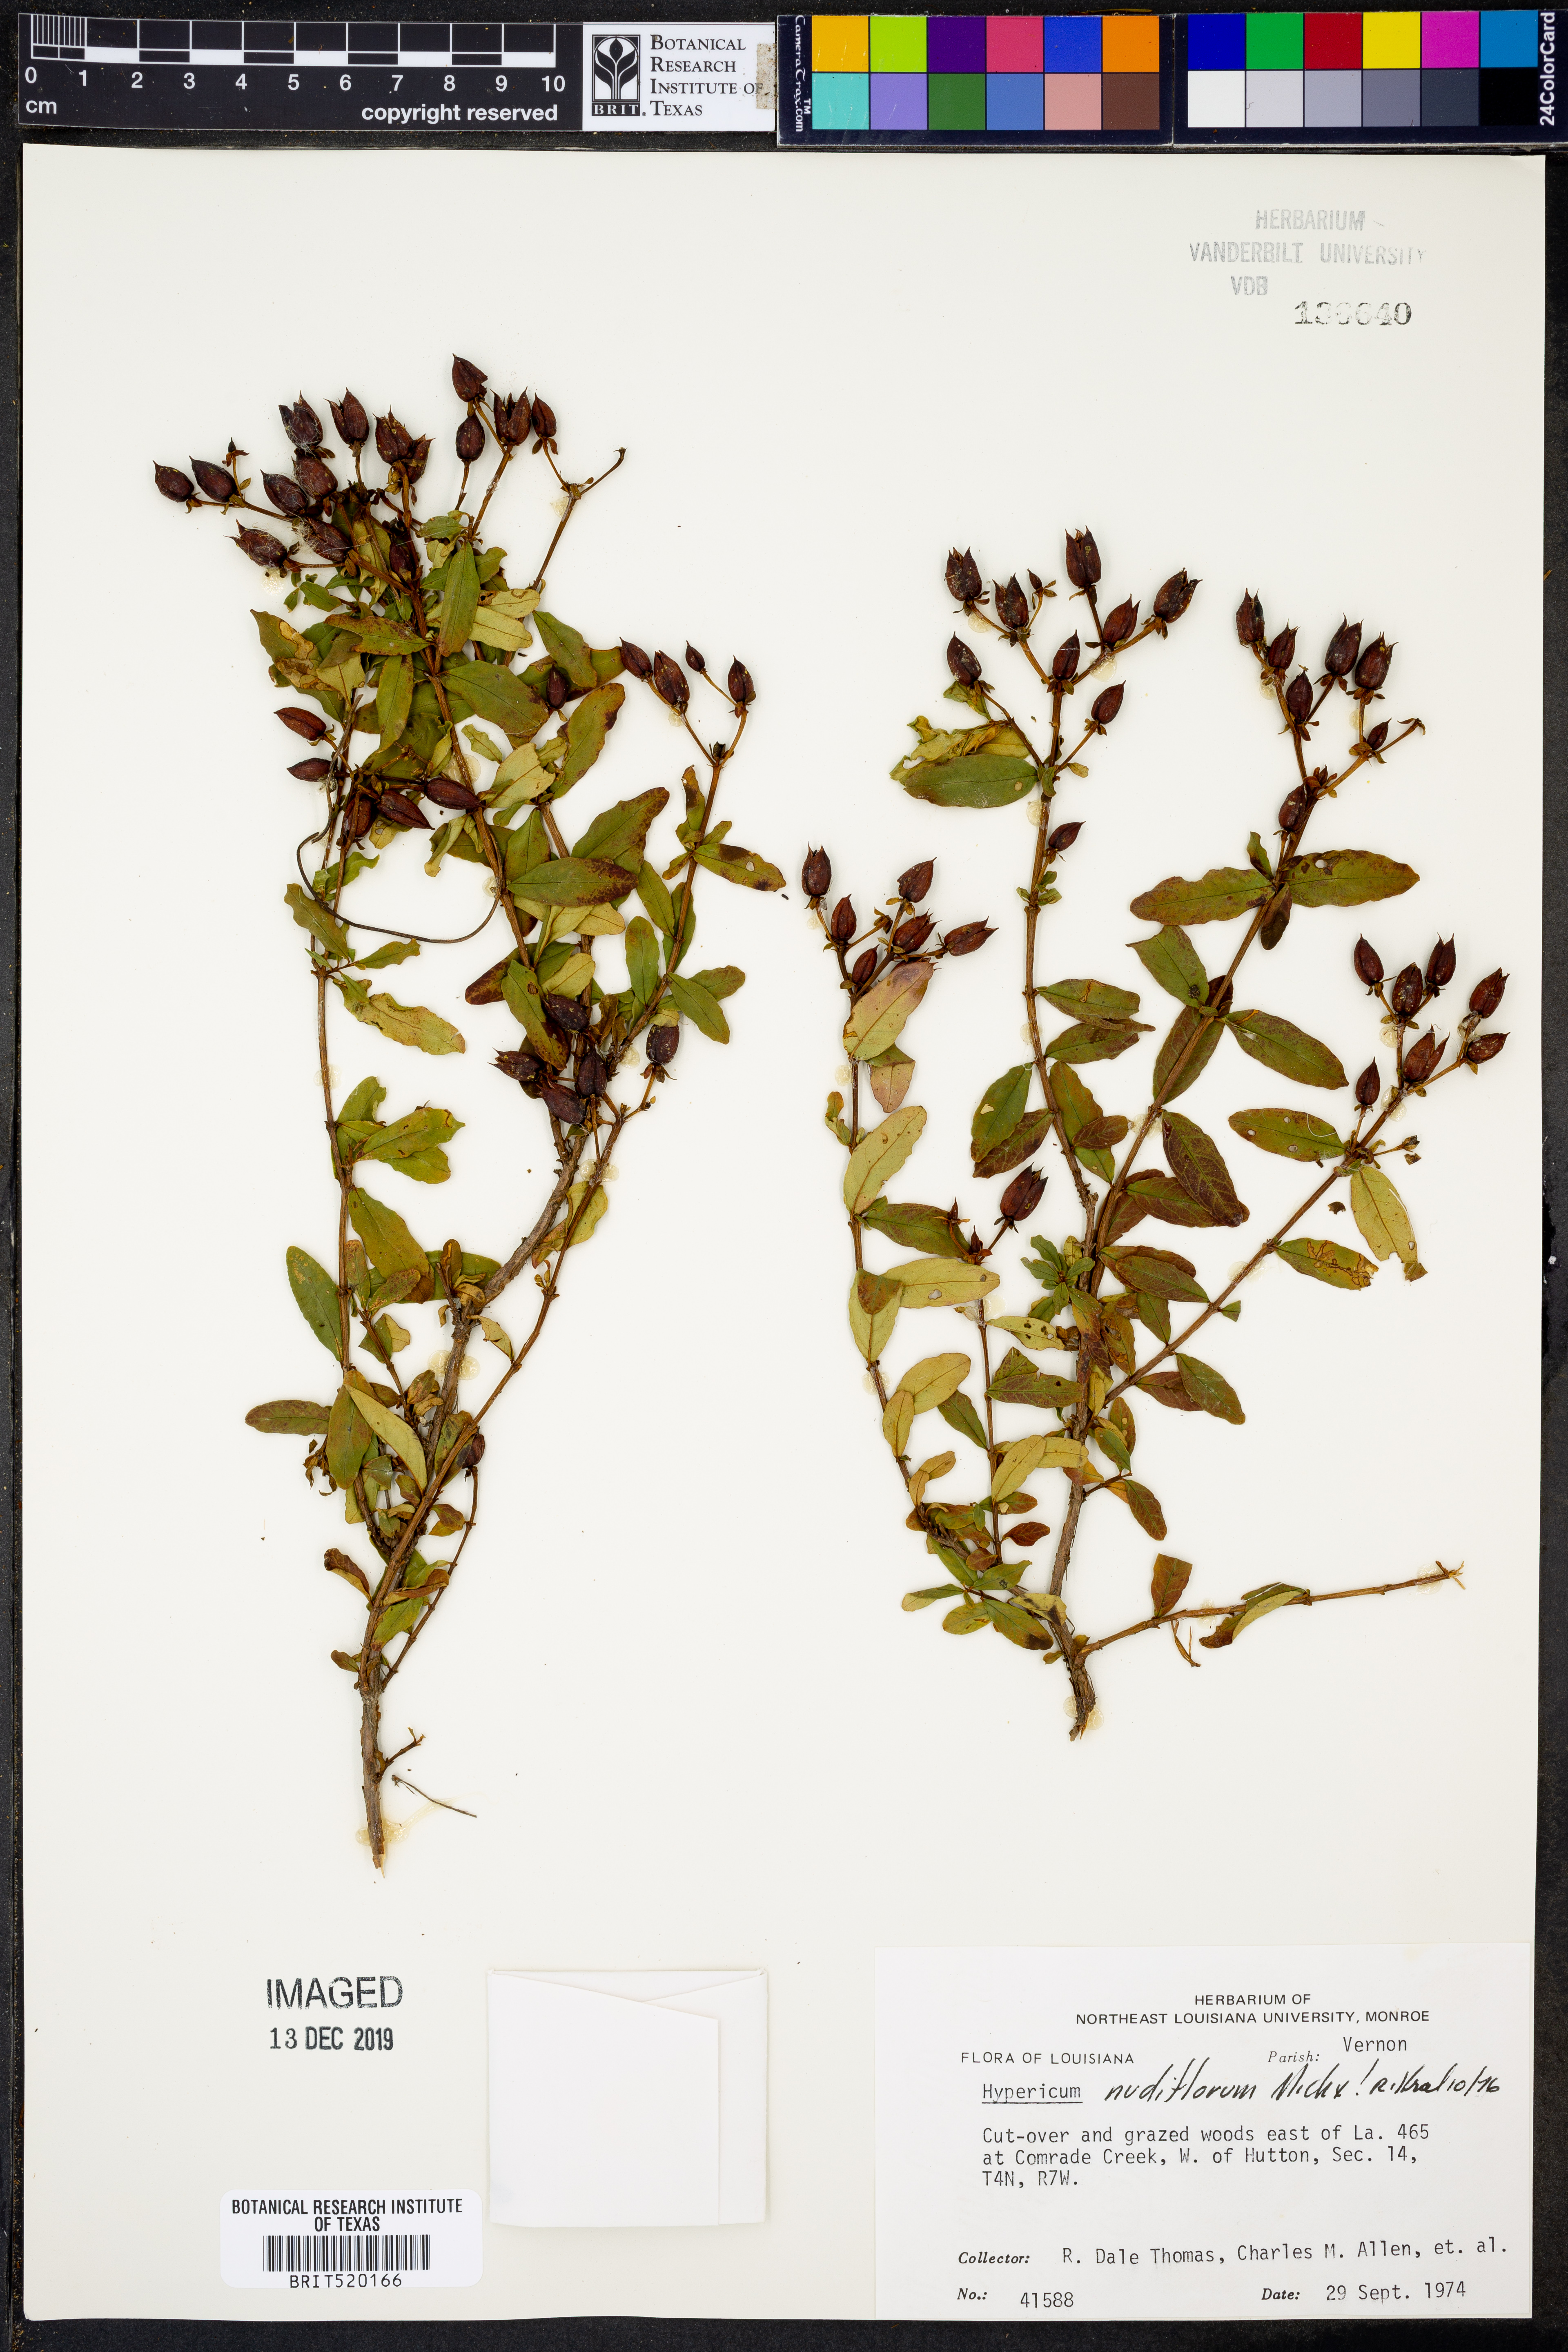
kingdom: Plantae
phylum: Tracheophyta
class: Magnoliopsida
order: Malpighiales
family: Hypericaceae
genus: Hypericum
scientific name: Hypericum nudiflorum
